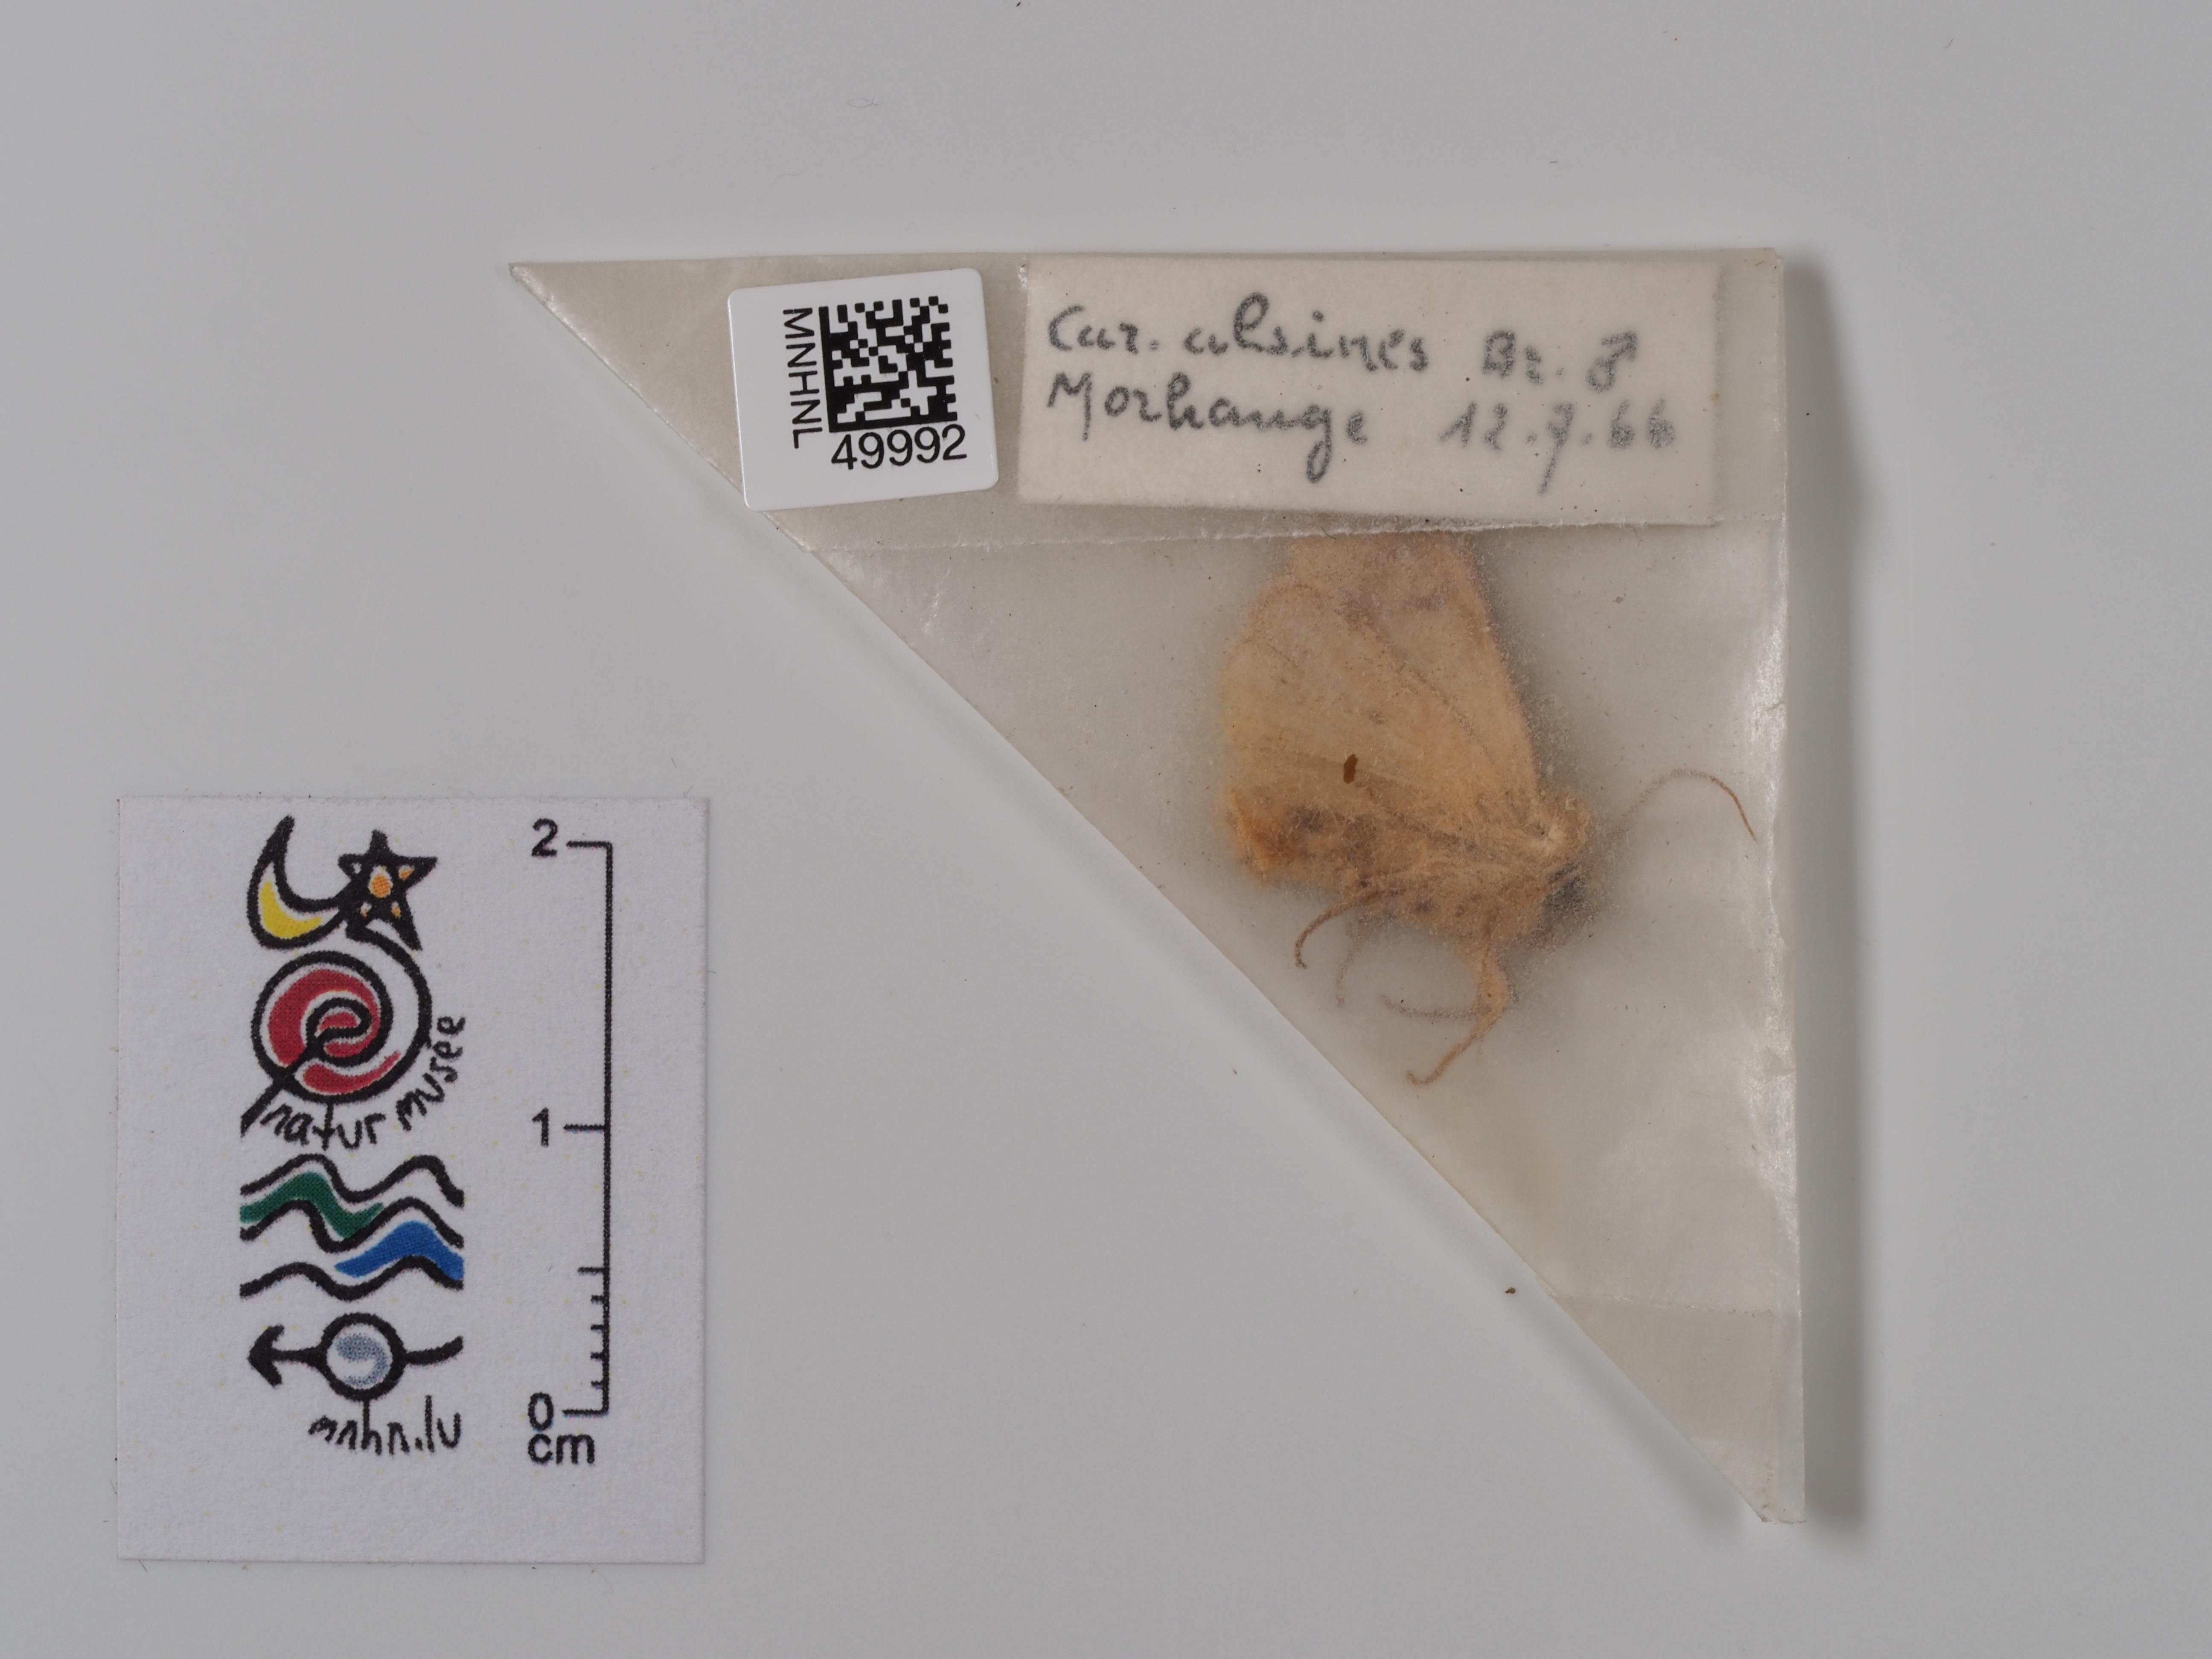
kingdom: Animalia
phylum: Arthropoda
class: Insecta
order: Lepidoptera
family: Noctuidae
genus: Hoplodrina
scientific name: Hoplodrina octogenaria
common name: Uncertain
